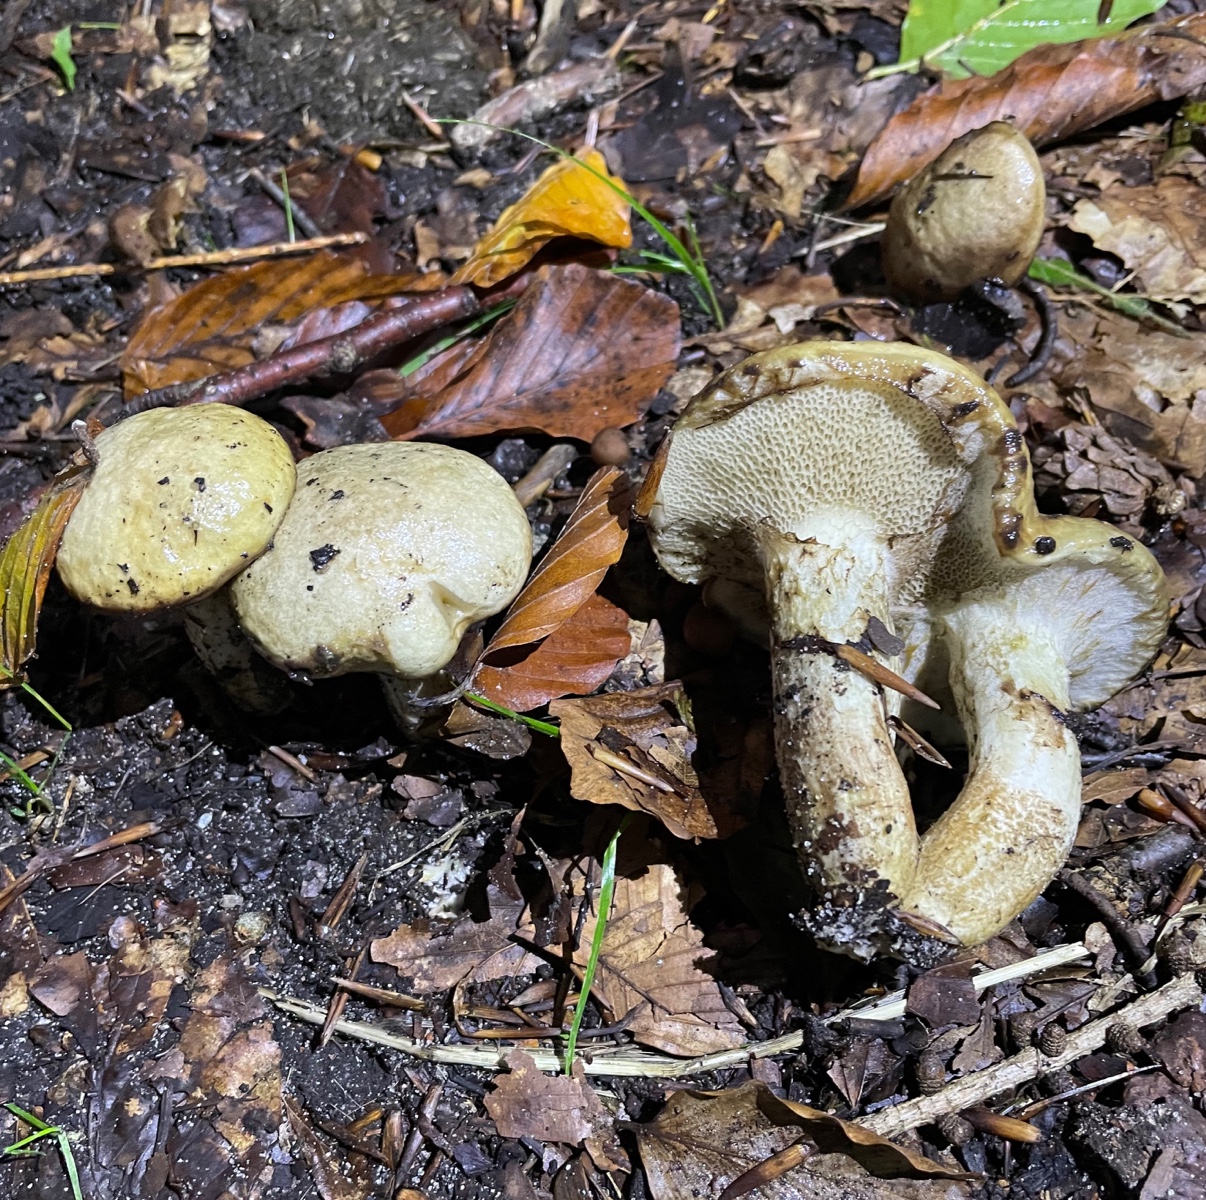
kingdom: Fungi
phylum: Basidiomycota
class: Agaricomycetes
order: Boletales
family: Suillaceae
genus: Suillus
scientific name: Suillus viscidus
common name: olivengrå slimrørhat
